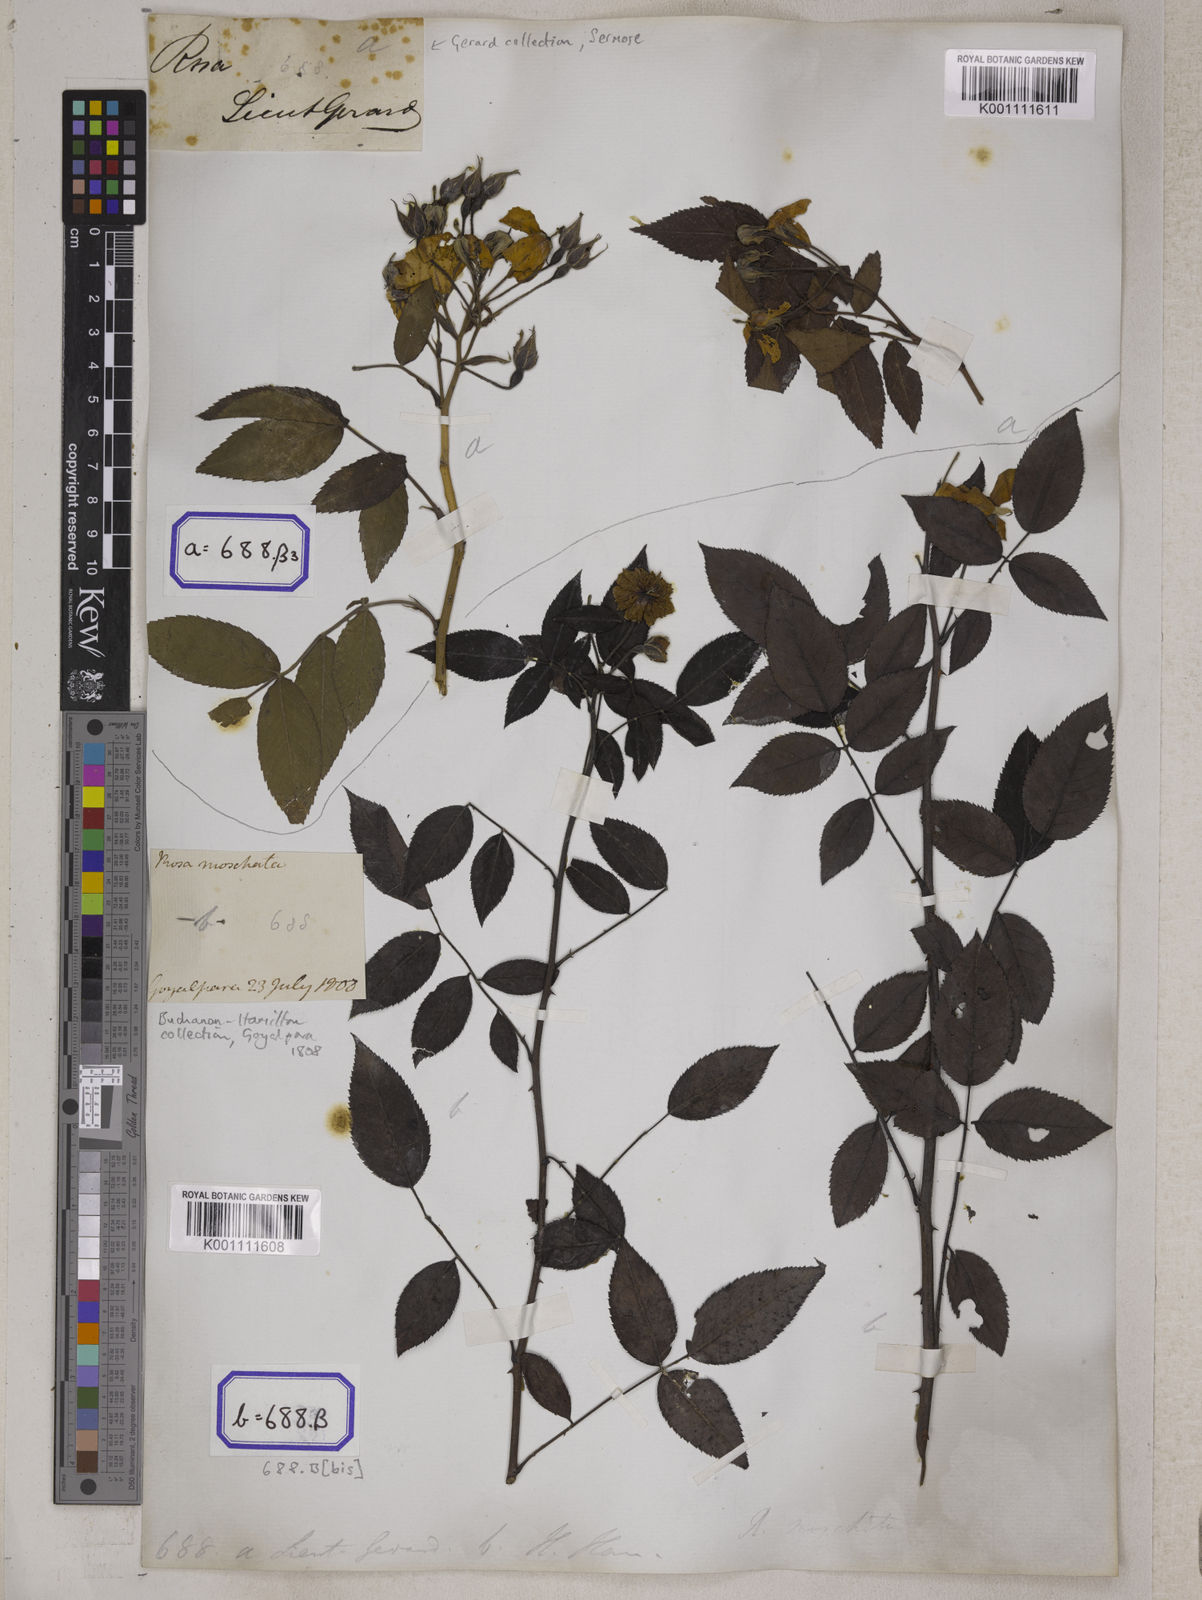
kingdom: Plantae
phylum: Tracheophyta
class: Magnoliopsida
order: Rosales
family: Rosaceae
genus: Rosa
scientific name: Rosa
